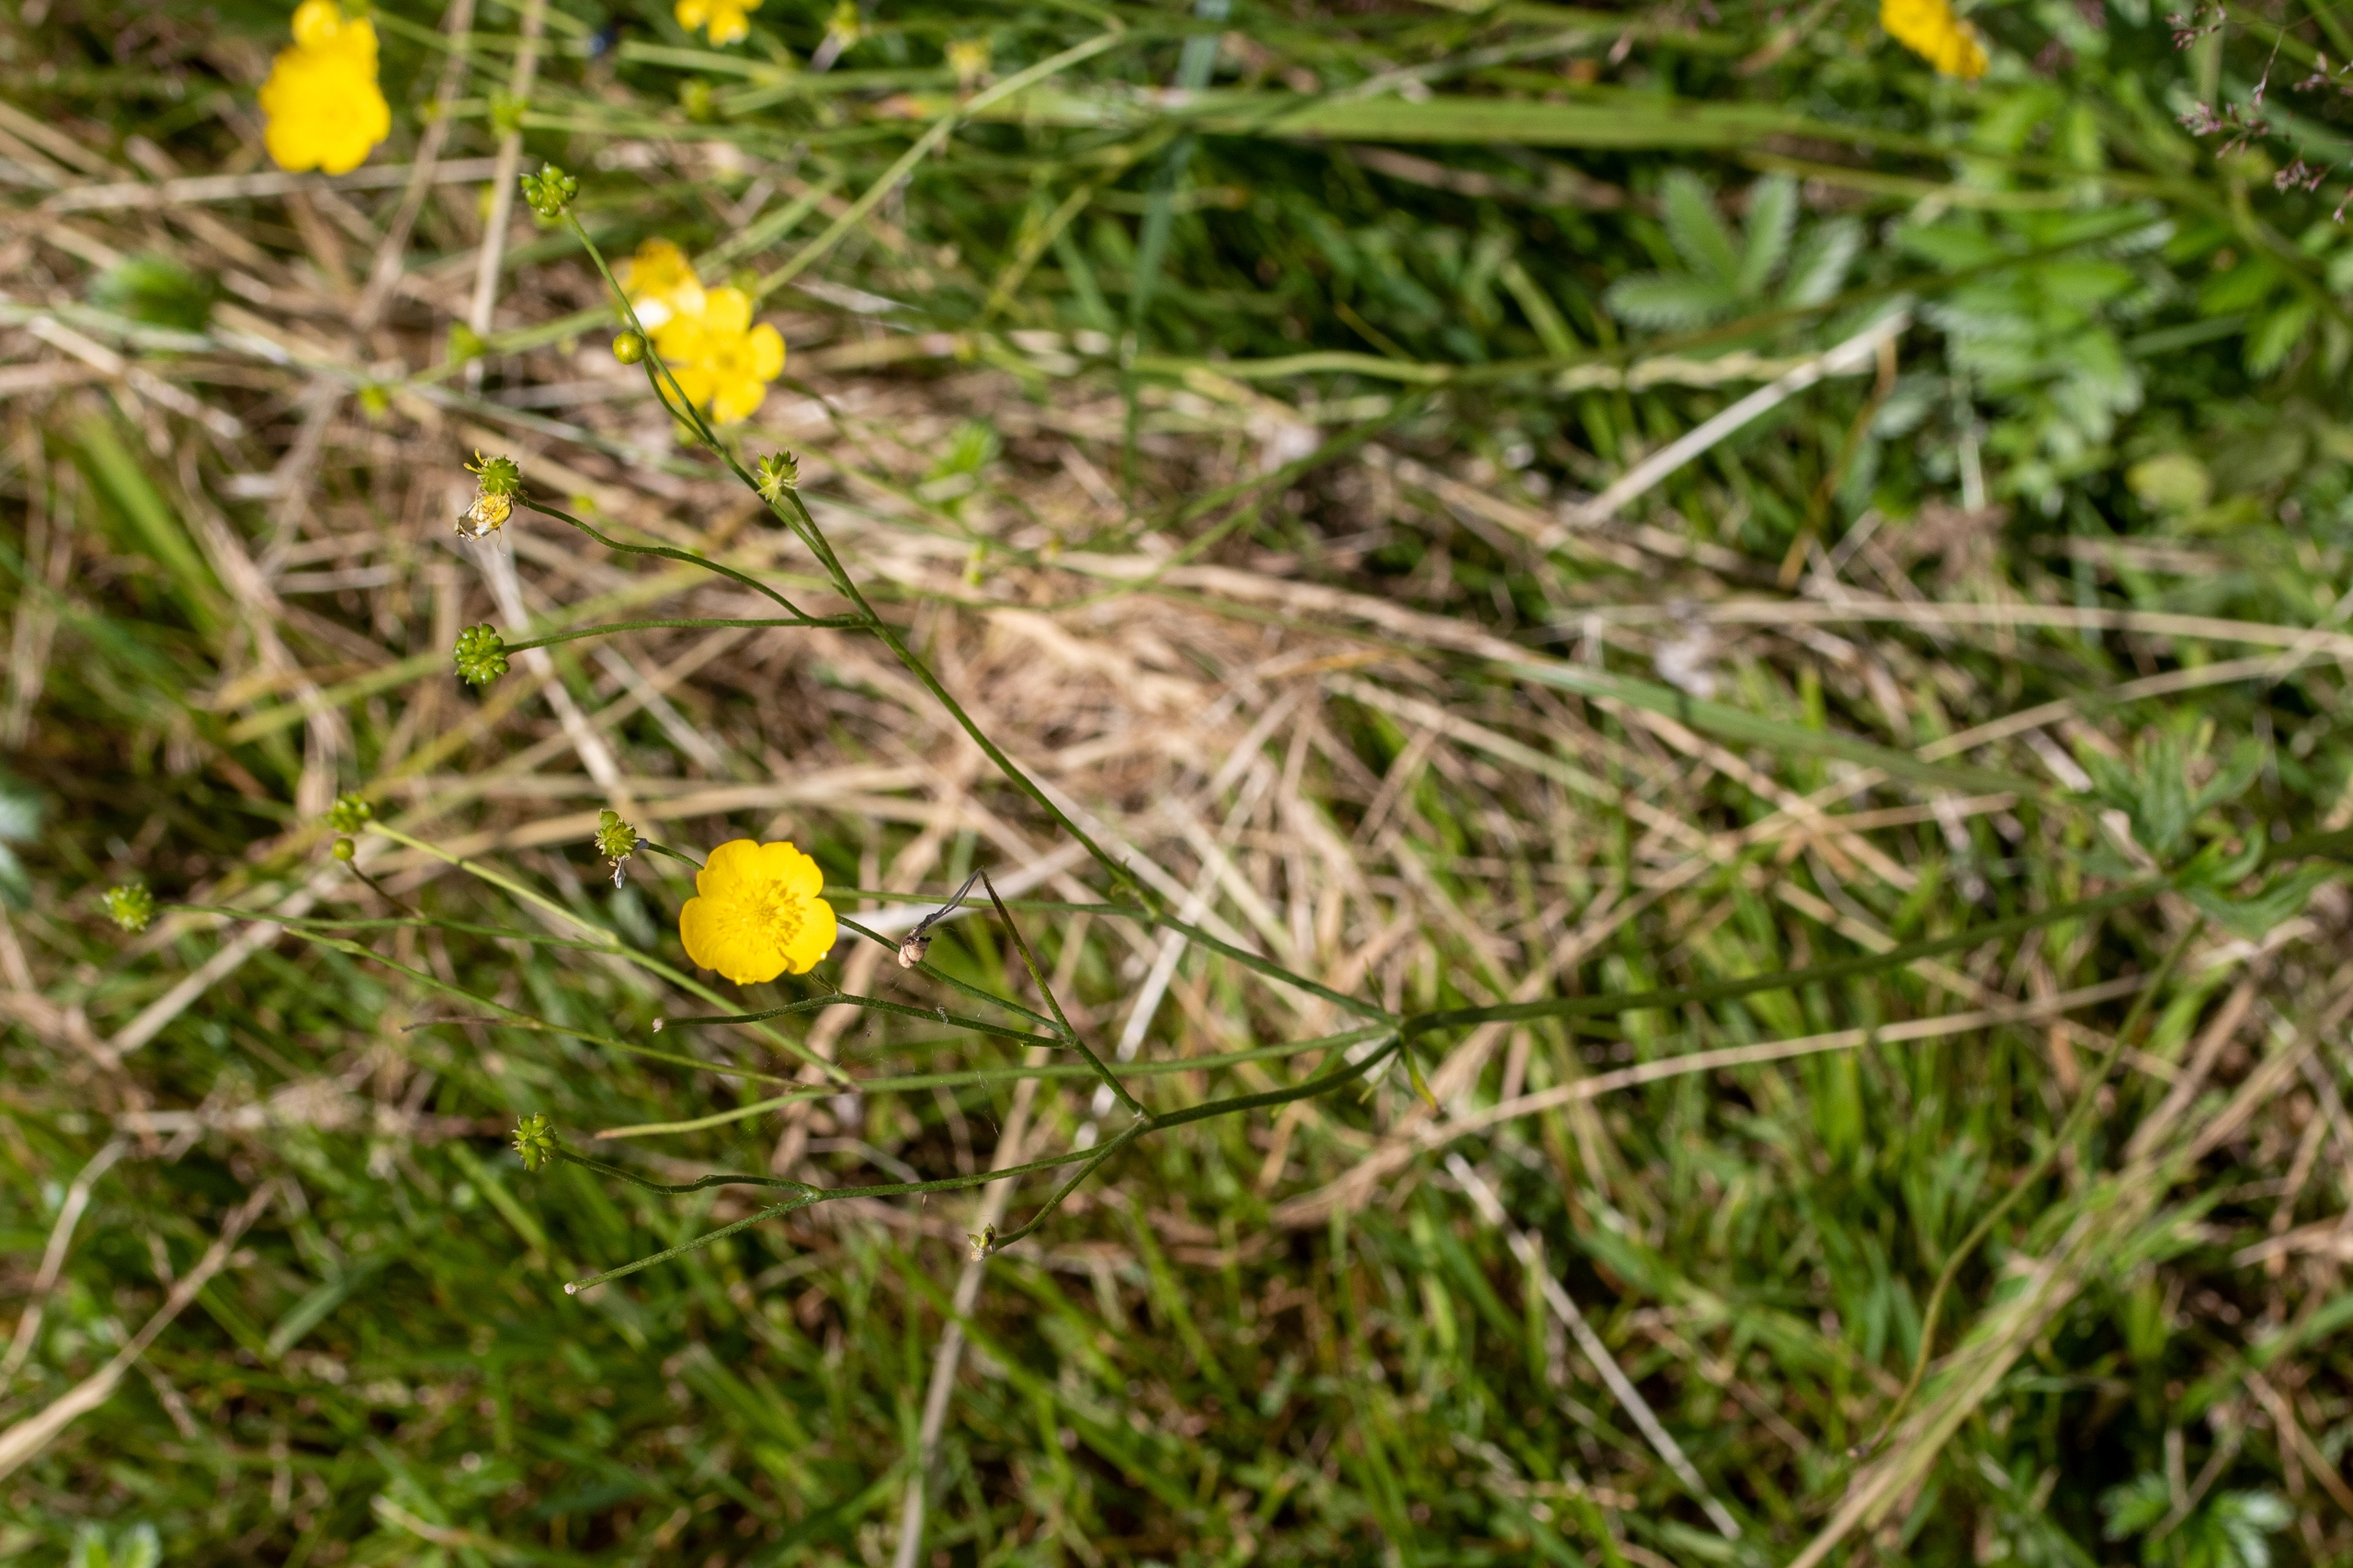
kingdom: Plantae
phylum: Tracheophyta
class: Magnoliopsida
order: Ranunculales
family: Ranunculaceae
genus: Ranunculus
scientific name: Ranunculus acris
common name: Bidende ranunkel
